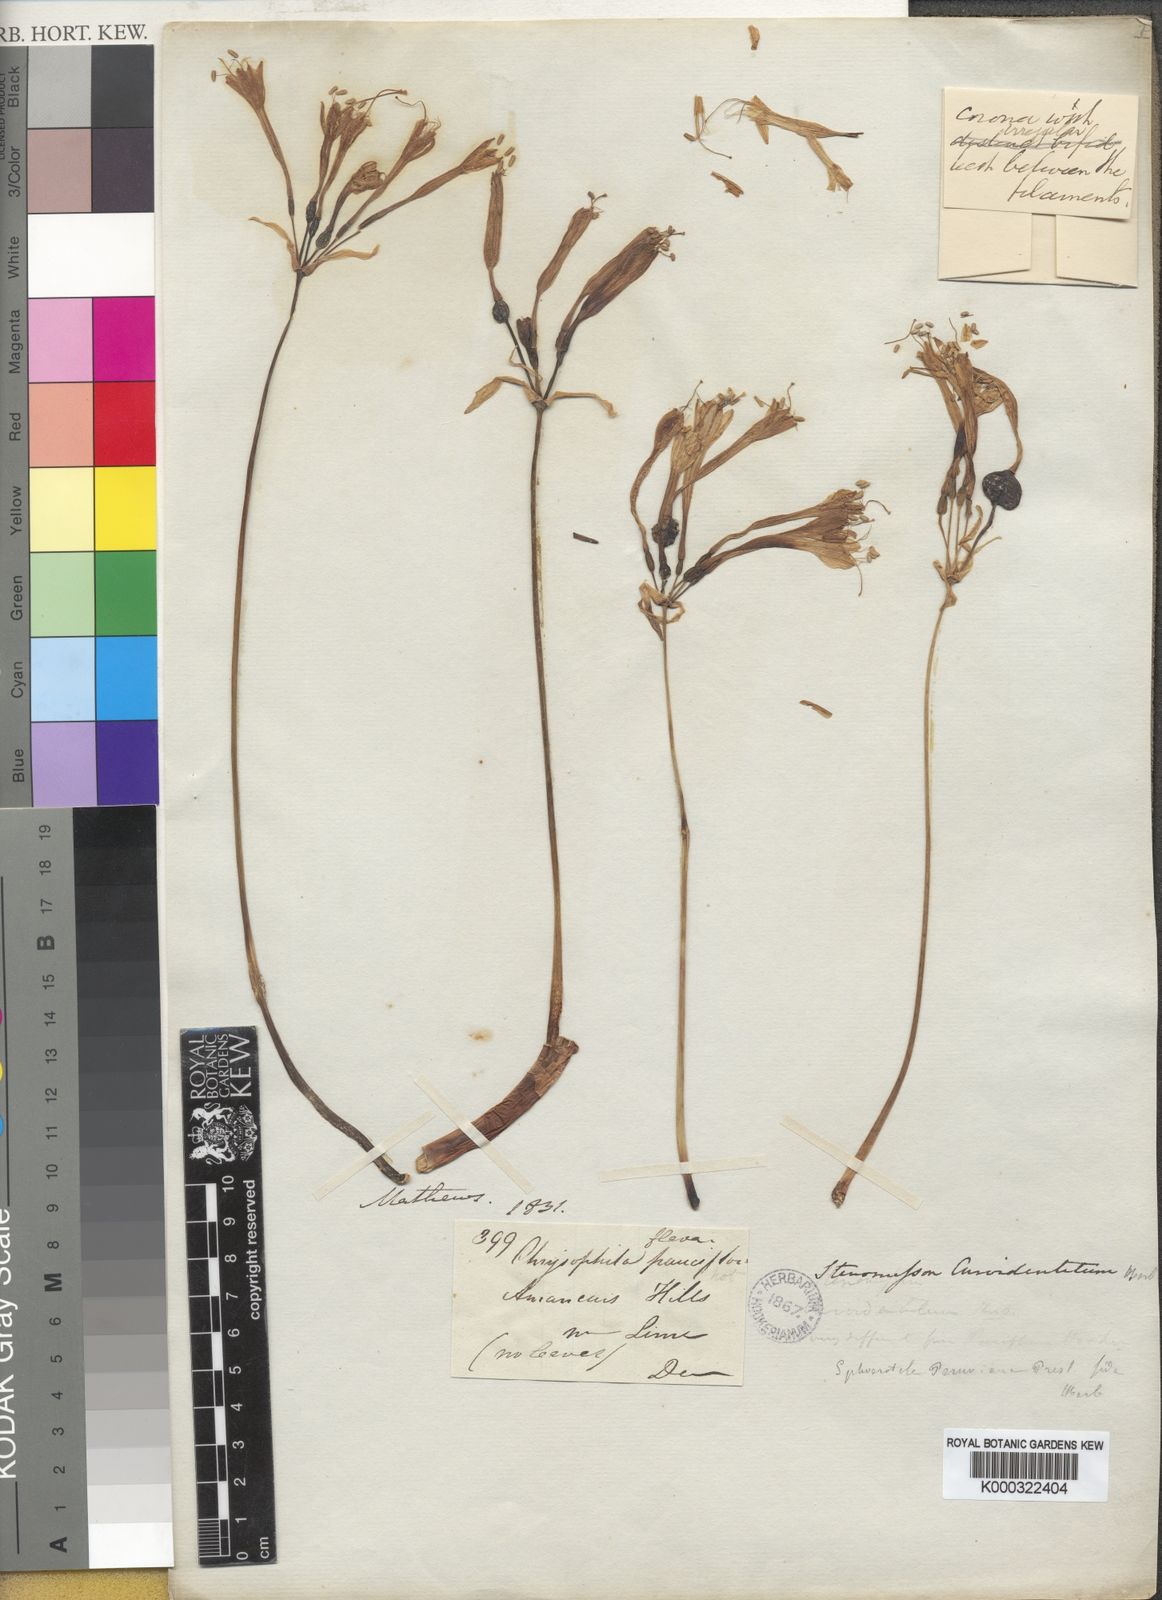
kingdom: Plantae
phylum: Tracheophyta
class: Liliopsida
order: Asparagales
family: Amaryllidaceae
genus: Stenomesson
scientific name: Stenomesson
